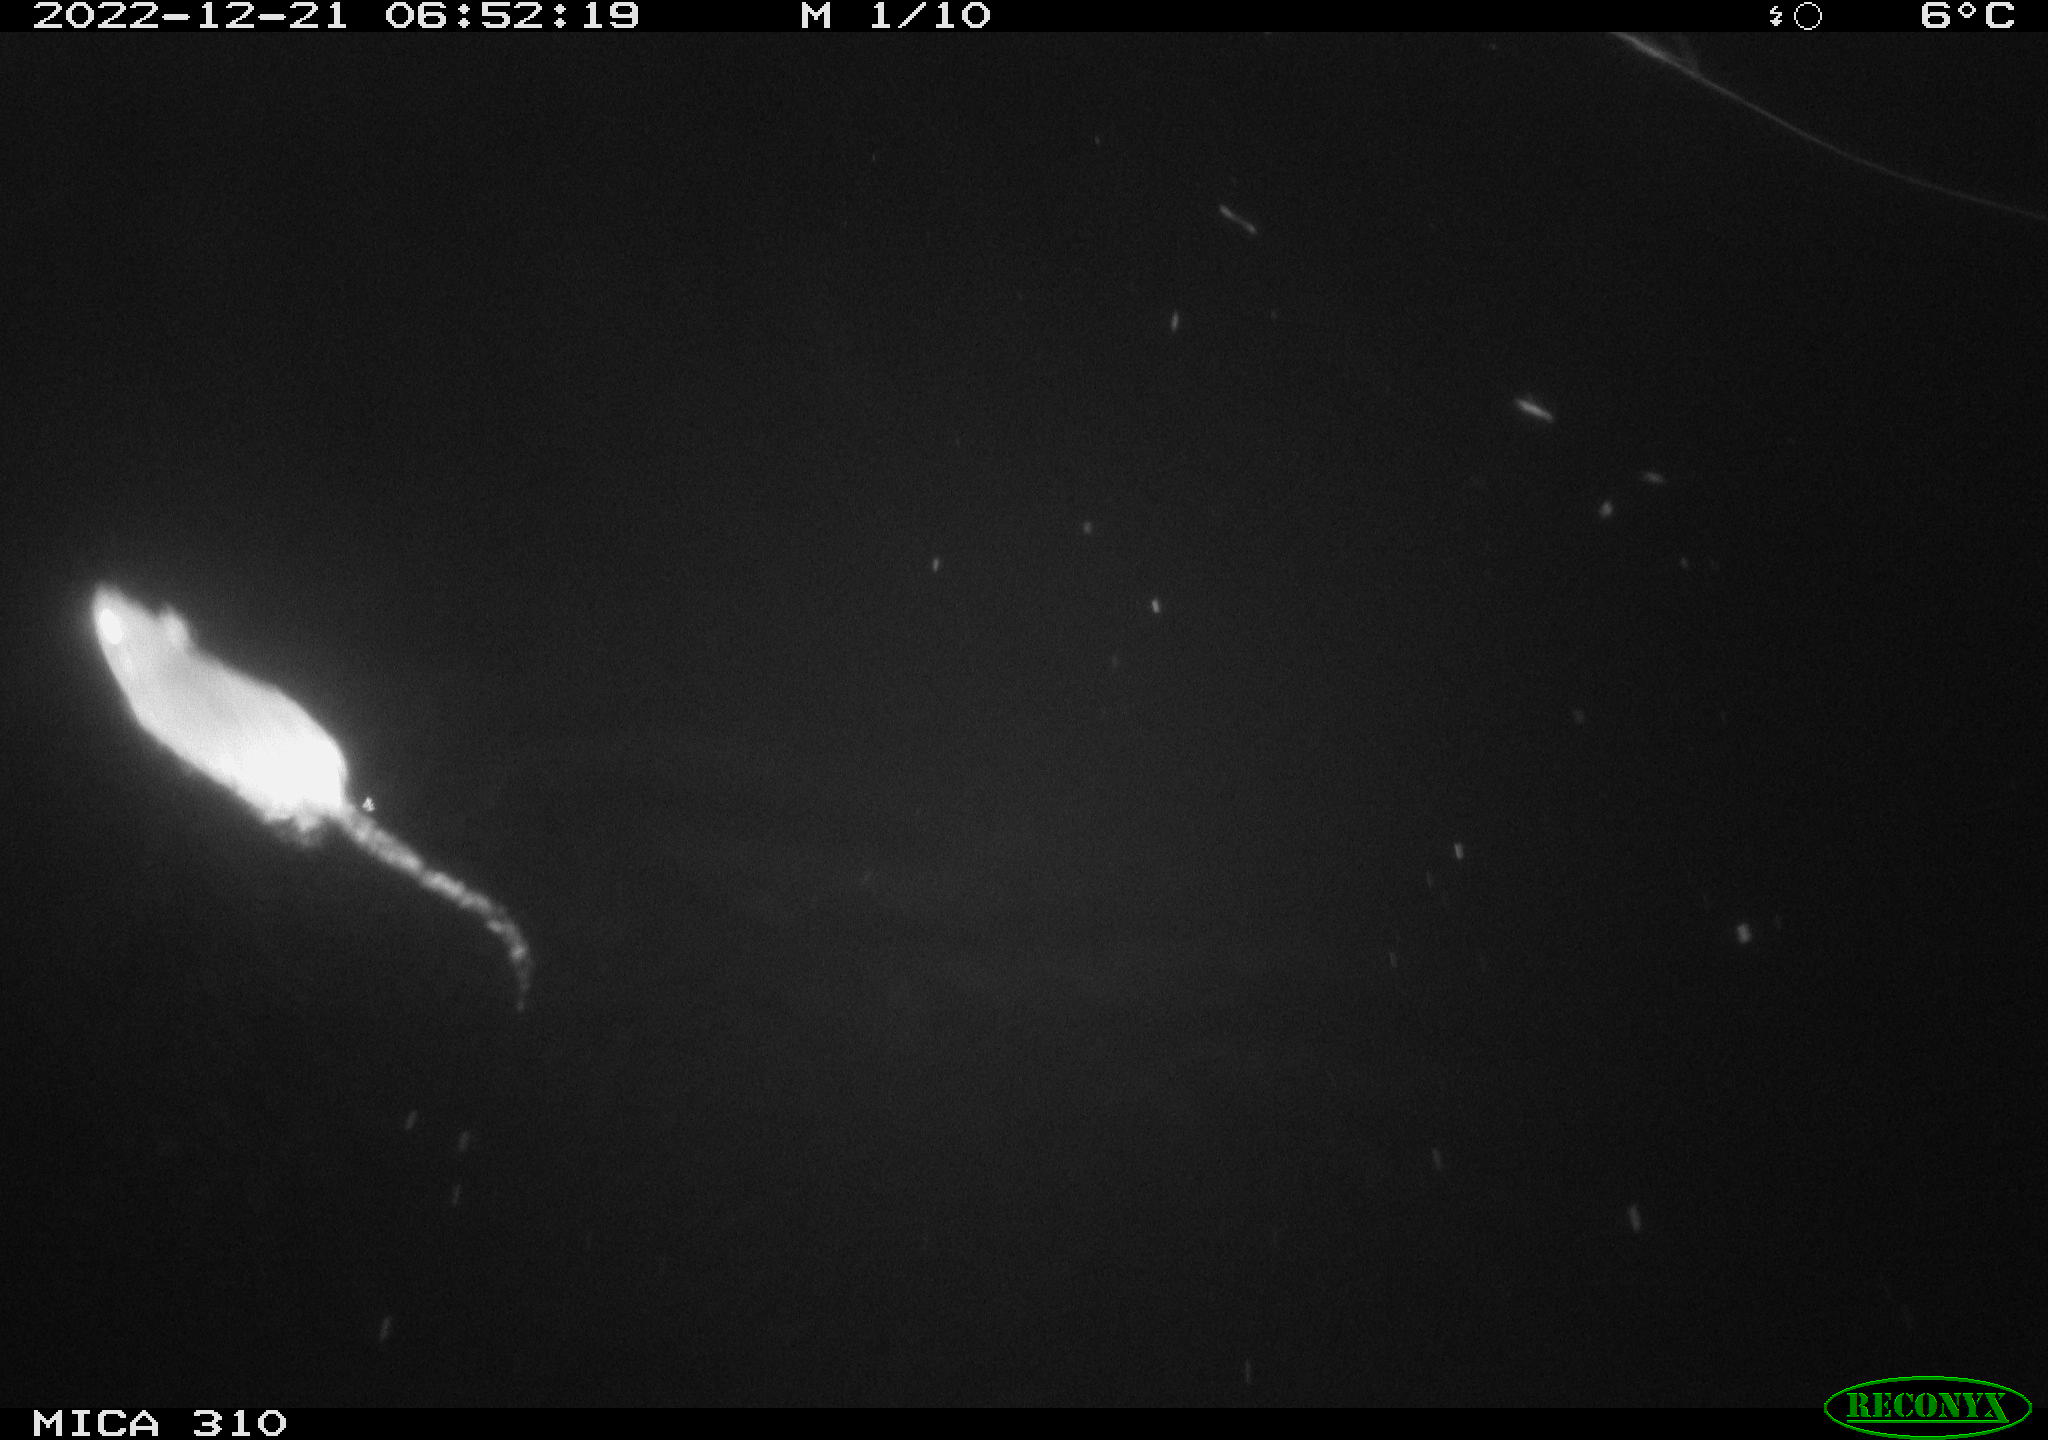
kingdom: Animalia
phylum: Chordata
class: Mammalia
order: Rodentia
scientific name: Rodentia
